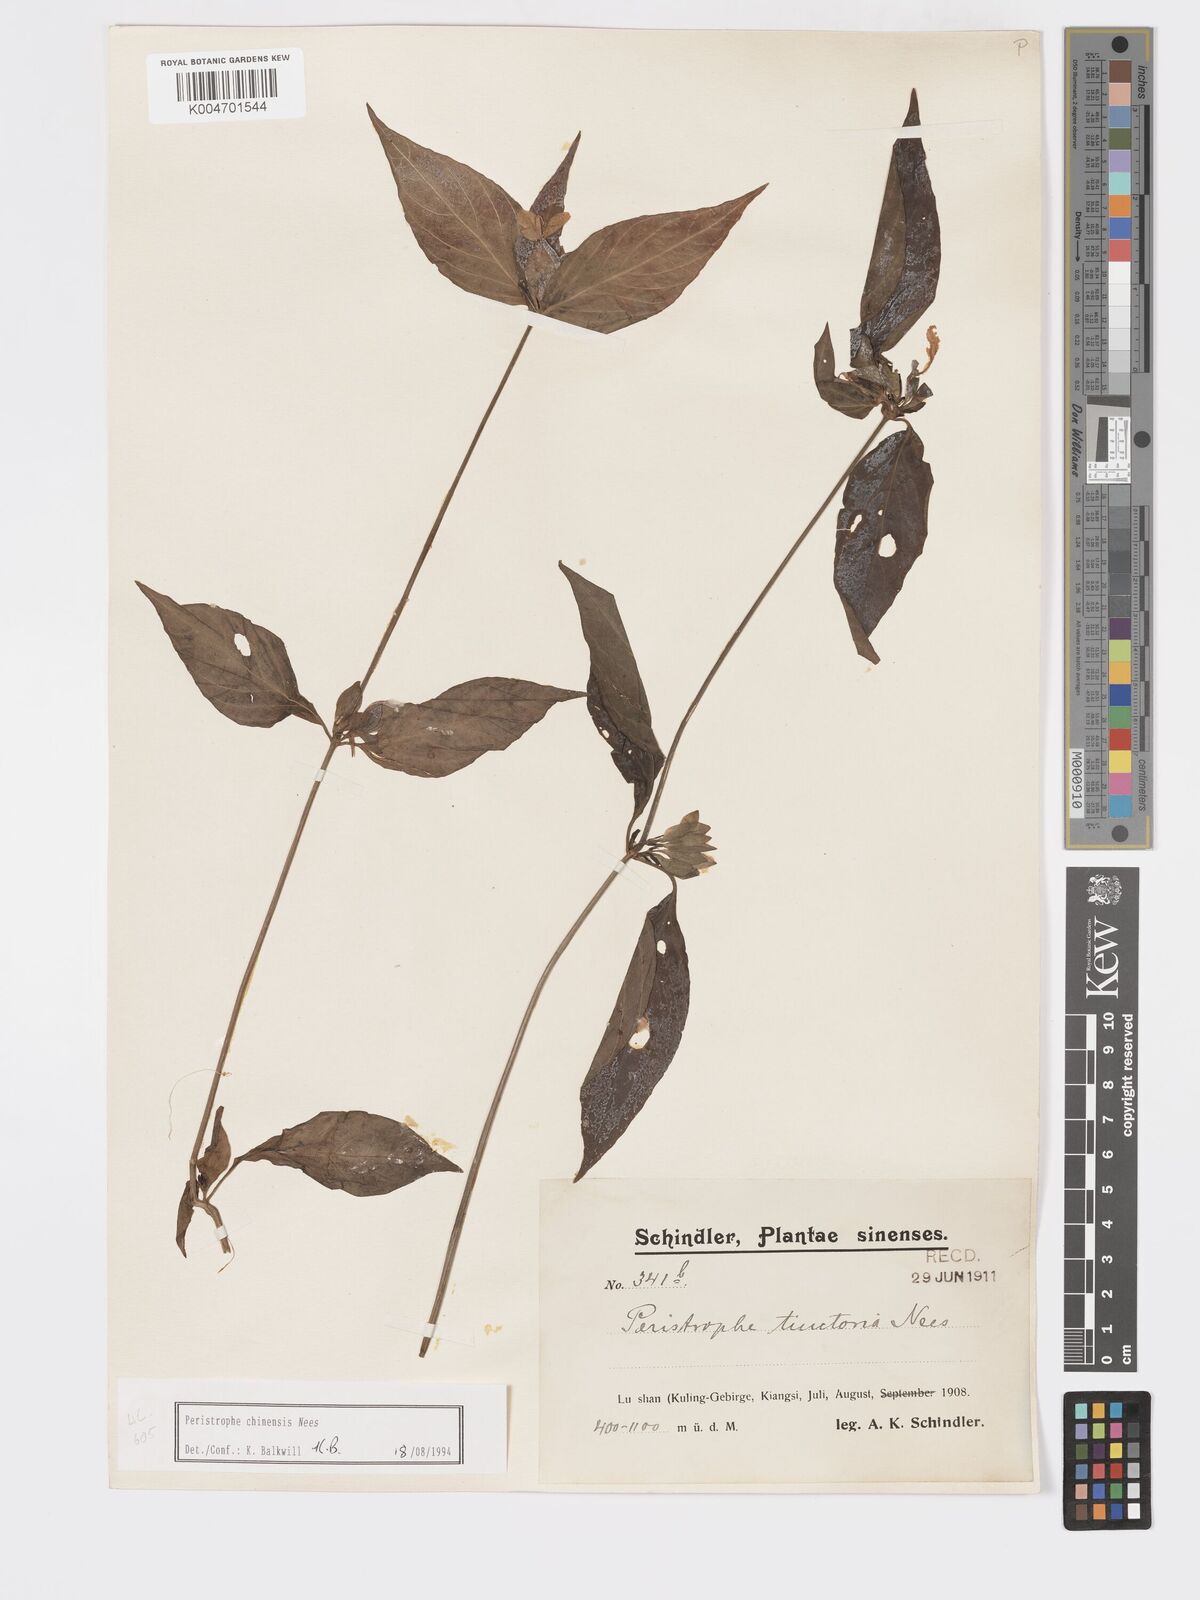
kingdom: Plantae
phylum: Tracheophyta
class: Magnoliopsida
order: Lamiales
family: Acanthaceae
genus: Dicliptera
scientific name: Dicliptera chinensis
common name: Chinese foldwing
